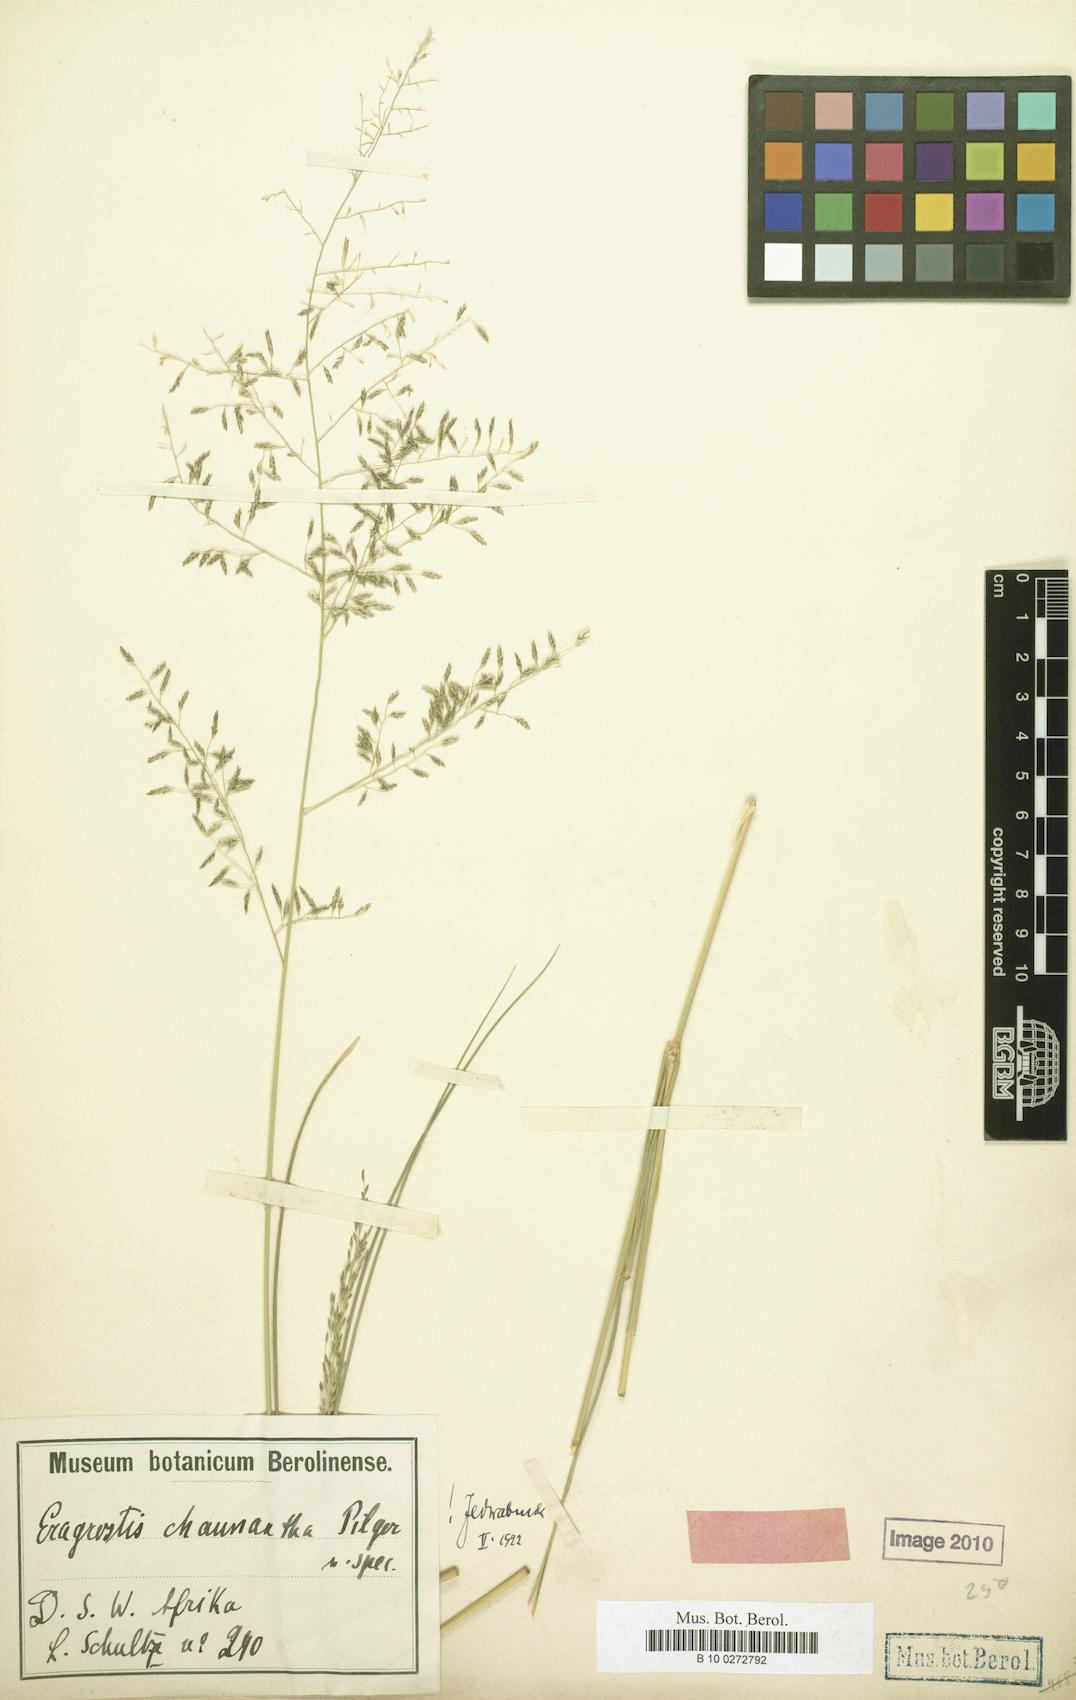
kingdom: Plantae
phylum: Tracheophyta
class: Liliopsida
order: Poales
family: Poaceae
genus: Eragrostis
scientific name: Eragrostis lehmanniana
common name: Lehmann lovegrass
